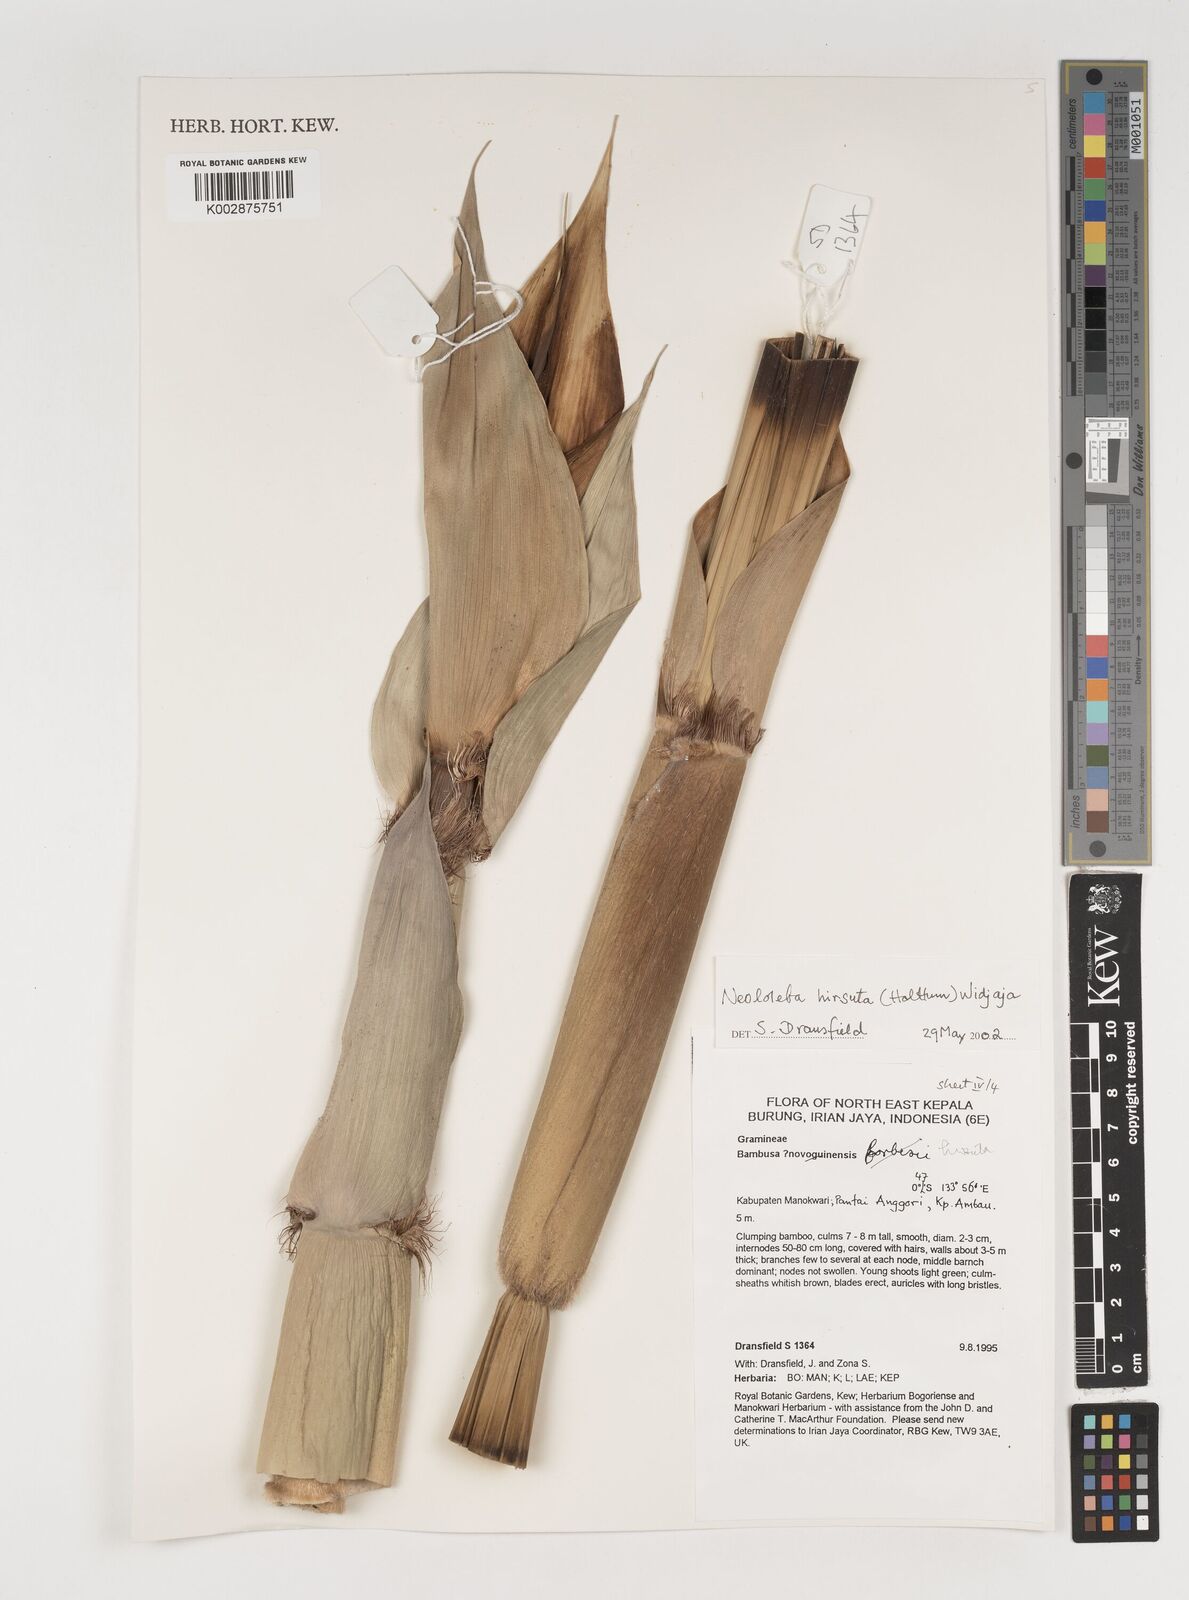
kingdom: Plantae
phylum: Tracheophyta
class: Liliopsida
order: Poales
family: Poaceae
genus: Neololeba
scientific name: Neololeba hirsuta
